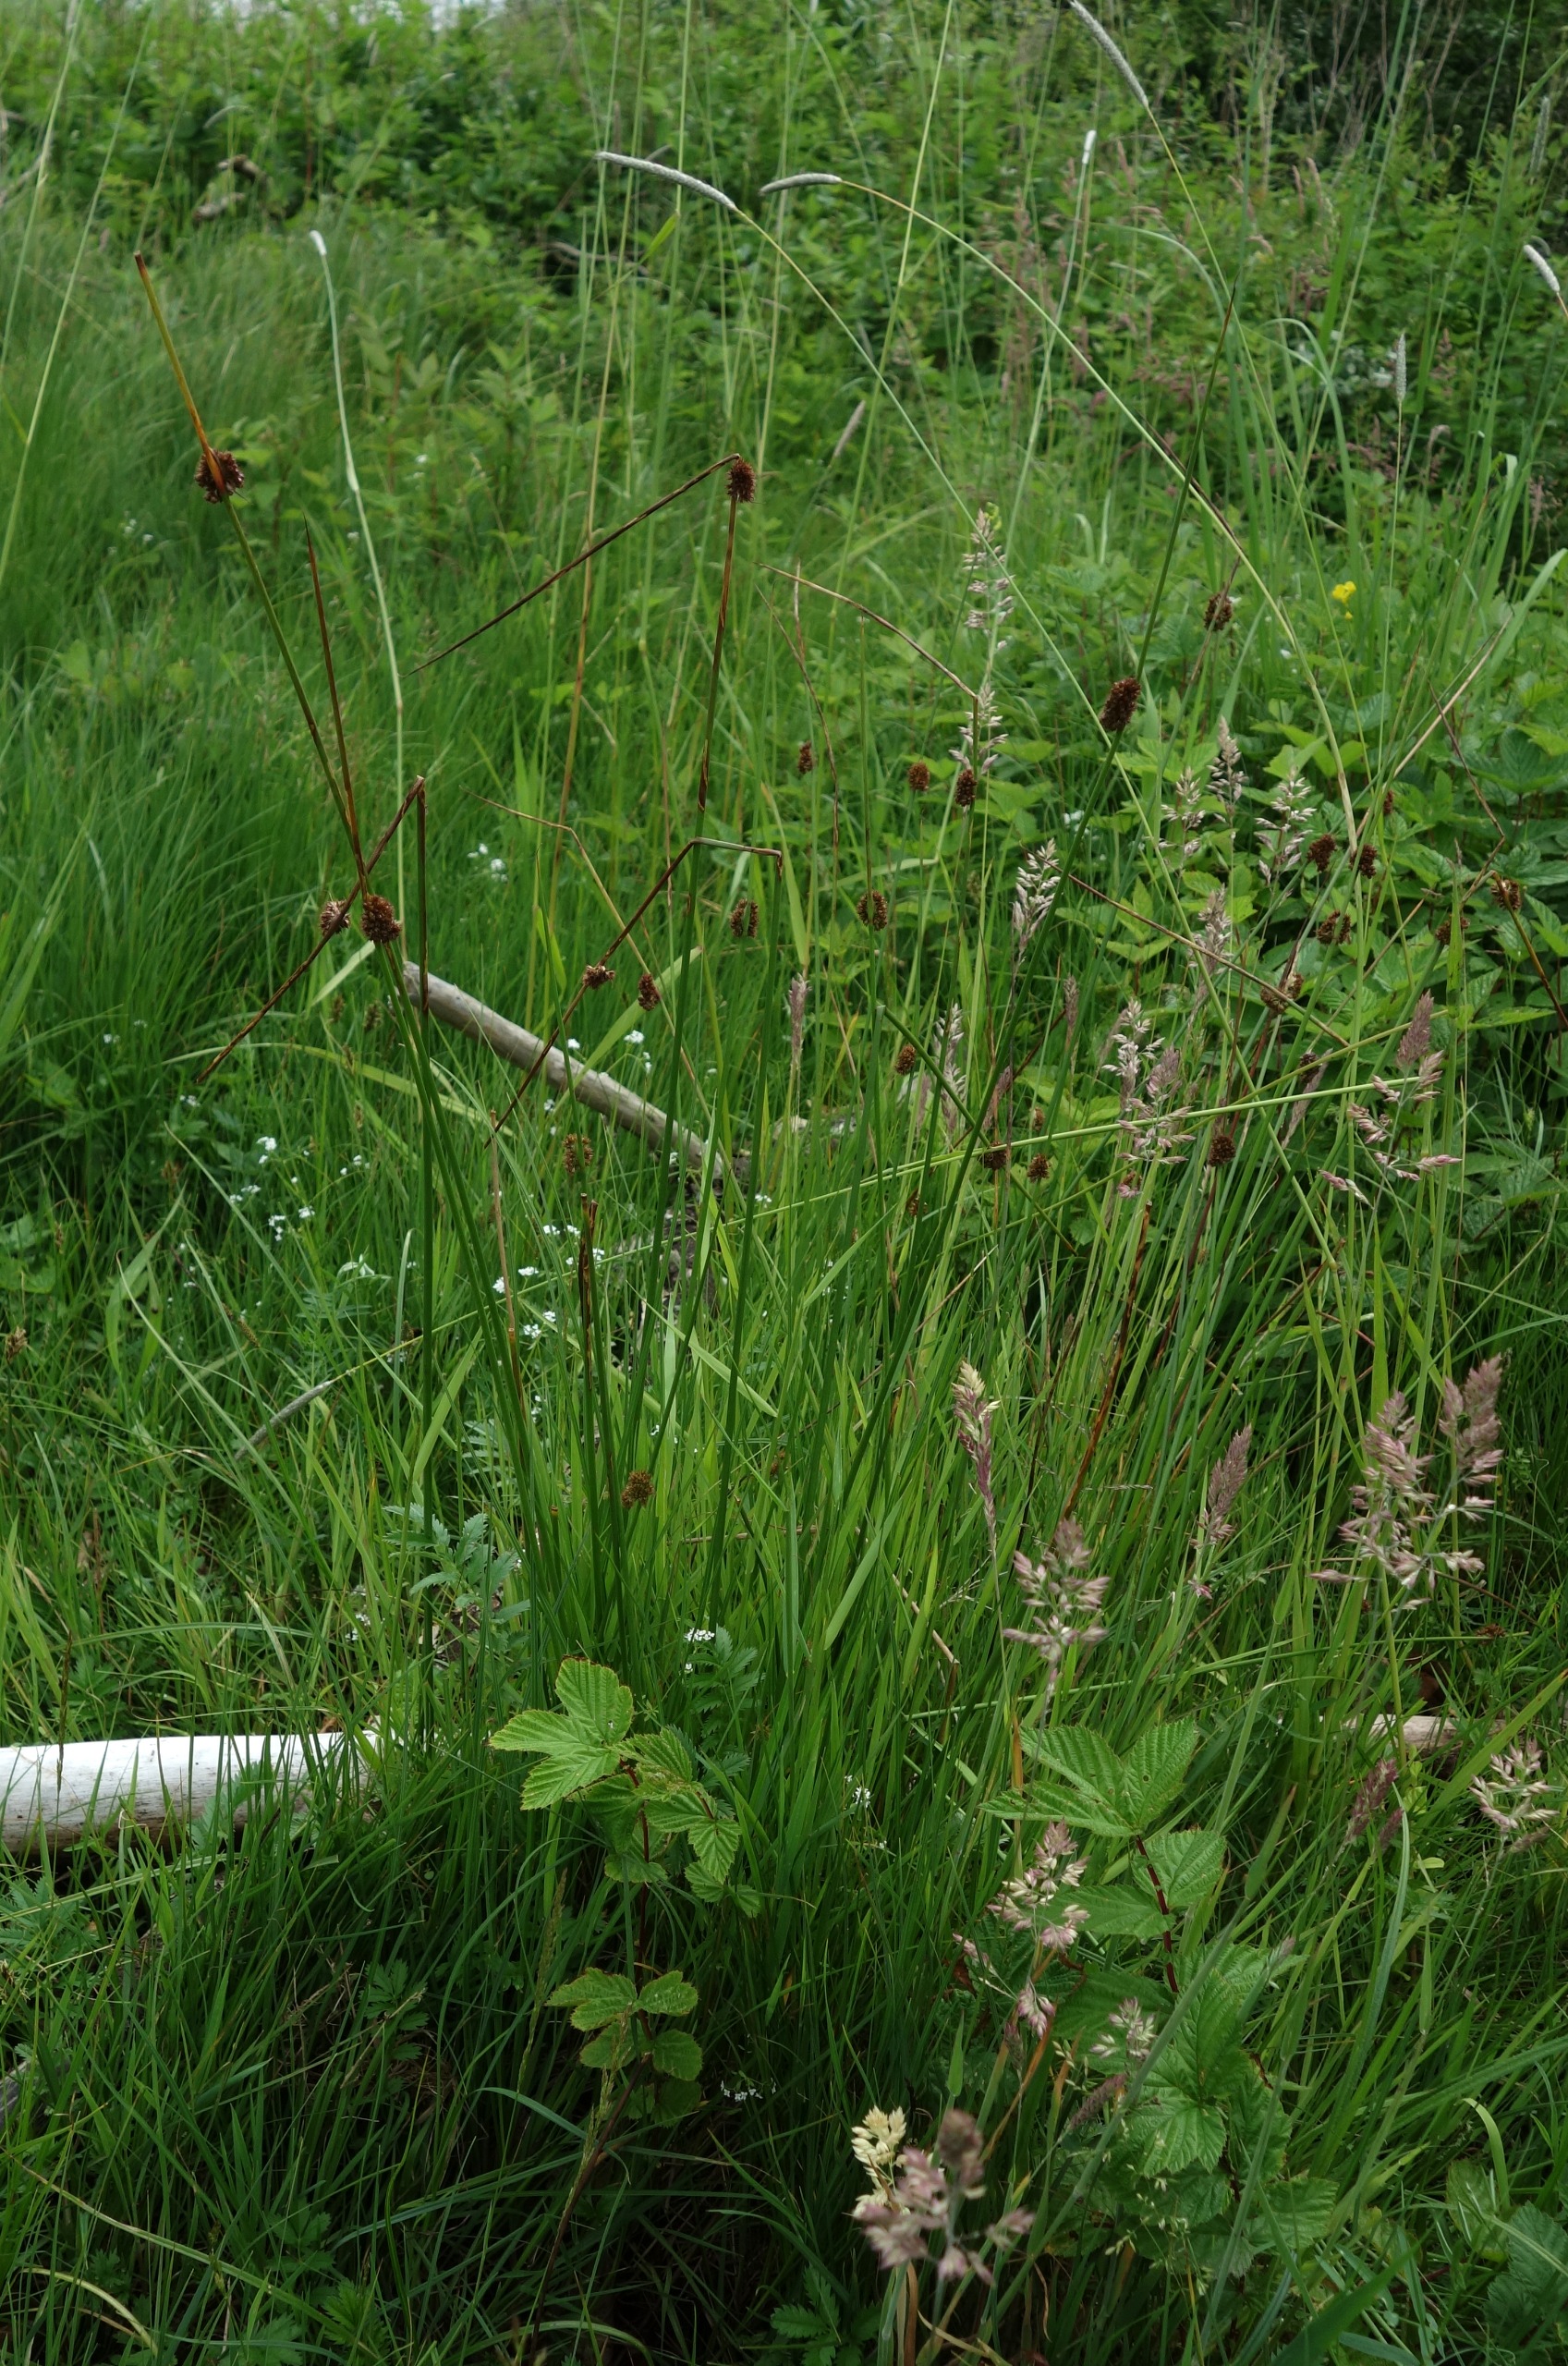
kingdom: Plantae
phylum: Tracheophyta
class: Liliopsida
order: Poales
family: Juncaceae
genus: Juncus
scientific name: Juncus conglomeratus
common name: Knop-siv
